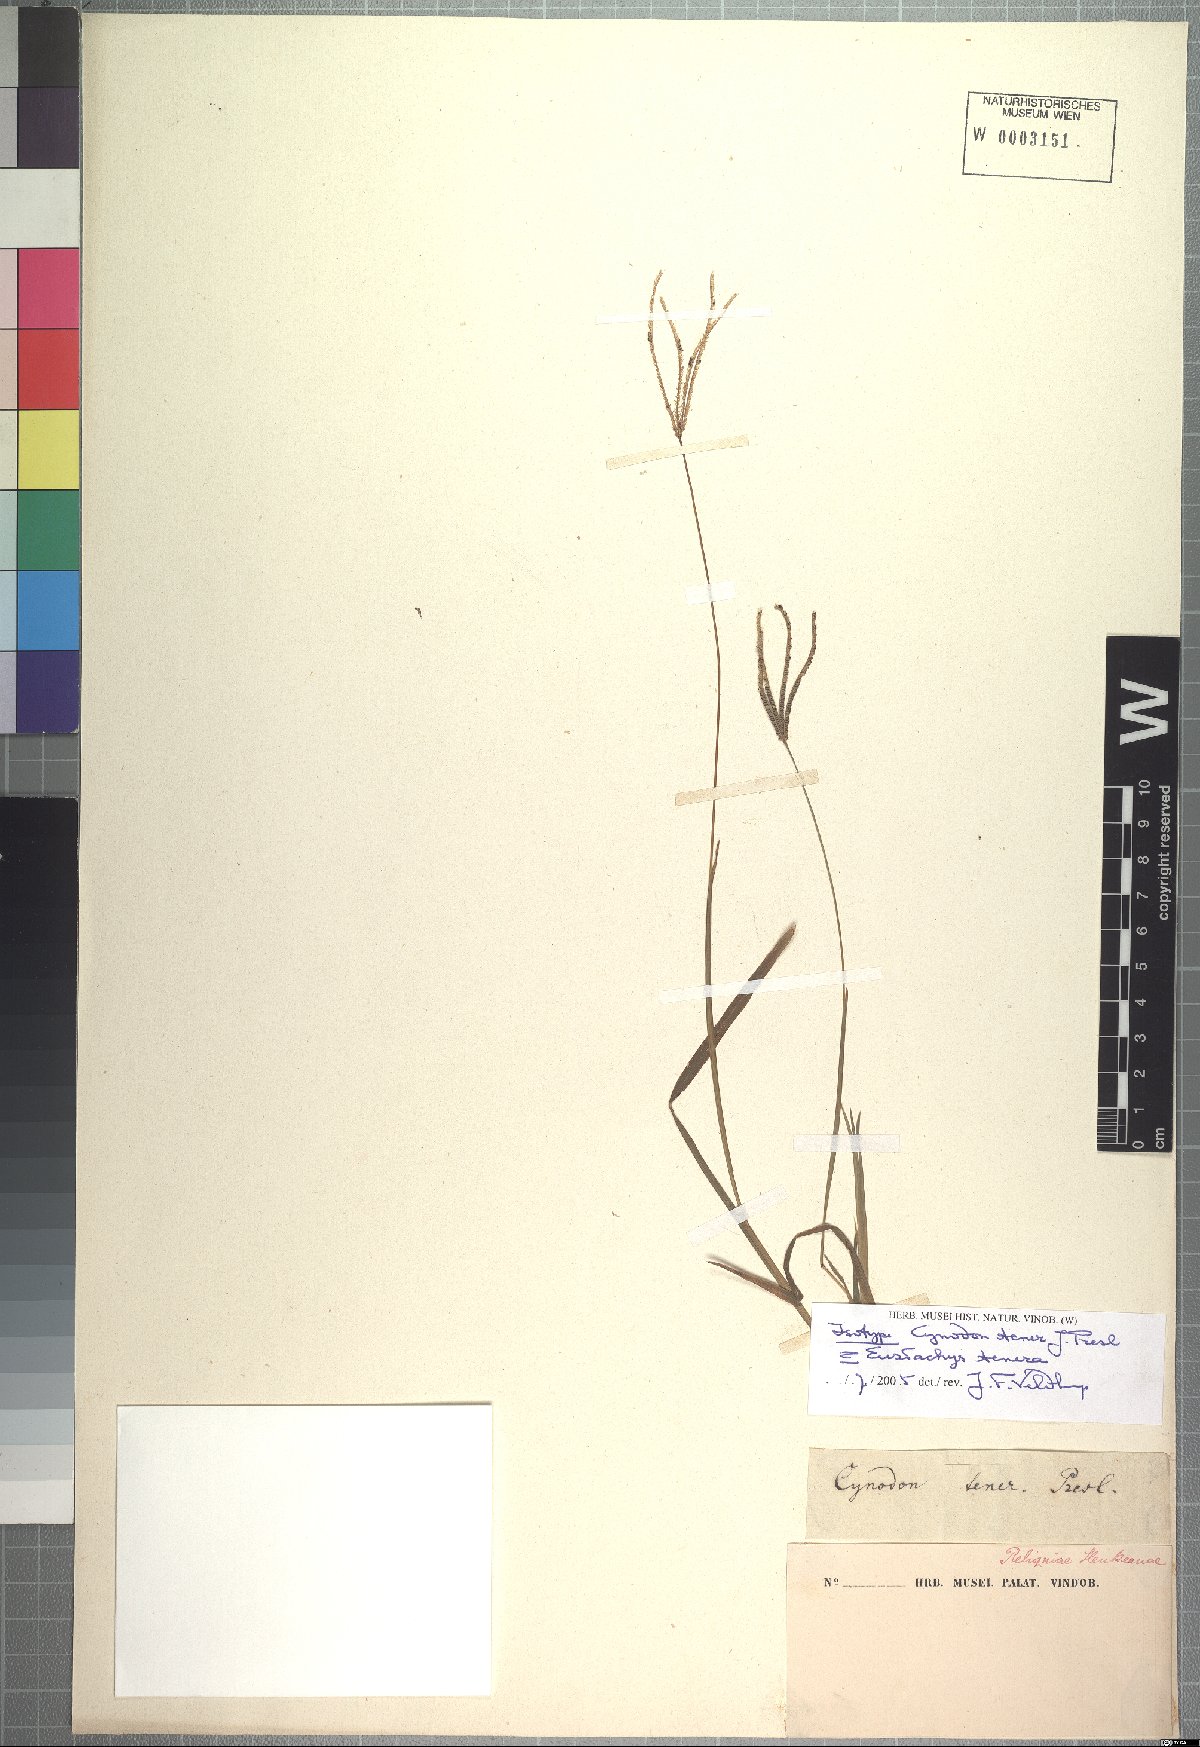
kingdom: Plantae
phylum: Tracheophyta
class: Liliopsida
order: Poales
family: Poaceae
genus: Eustachys
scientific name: Eustachys tenera
